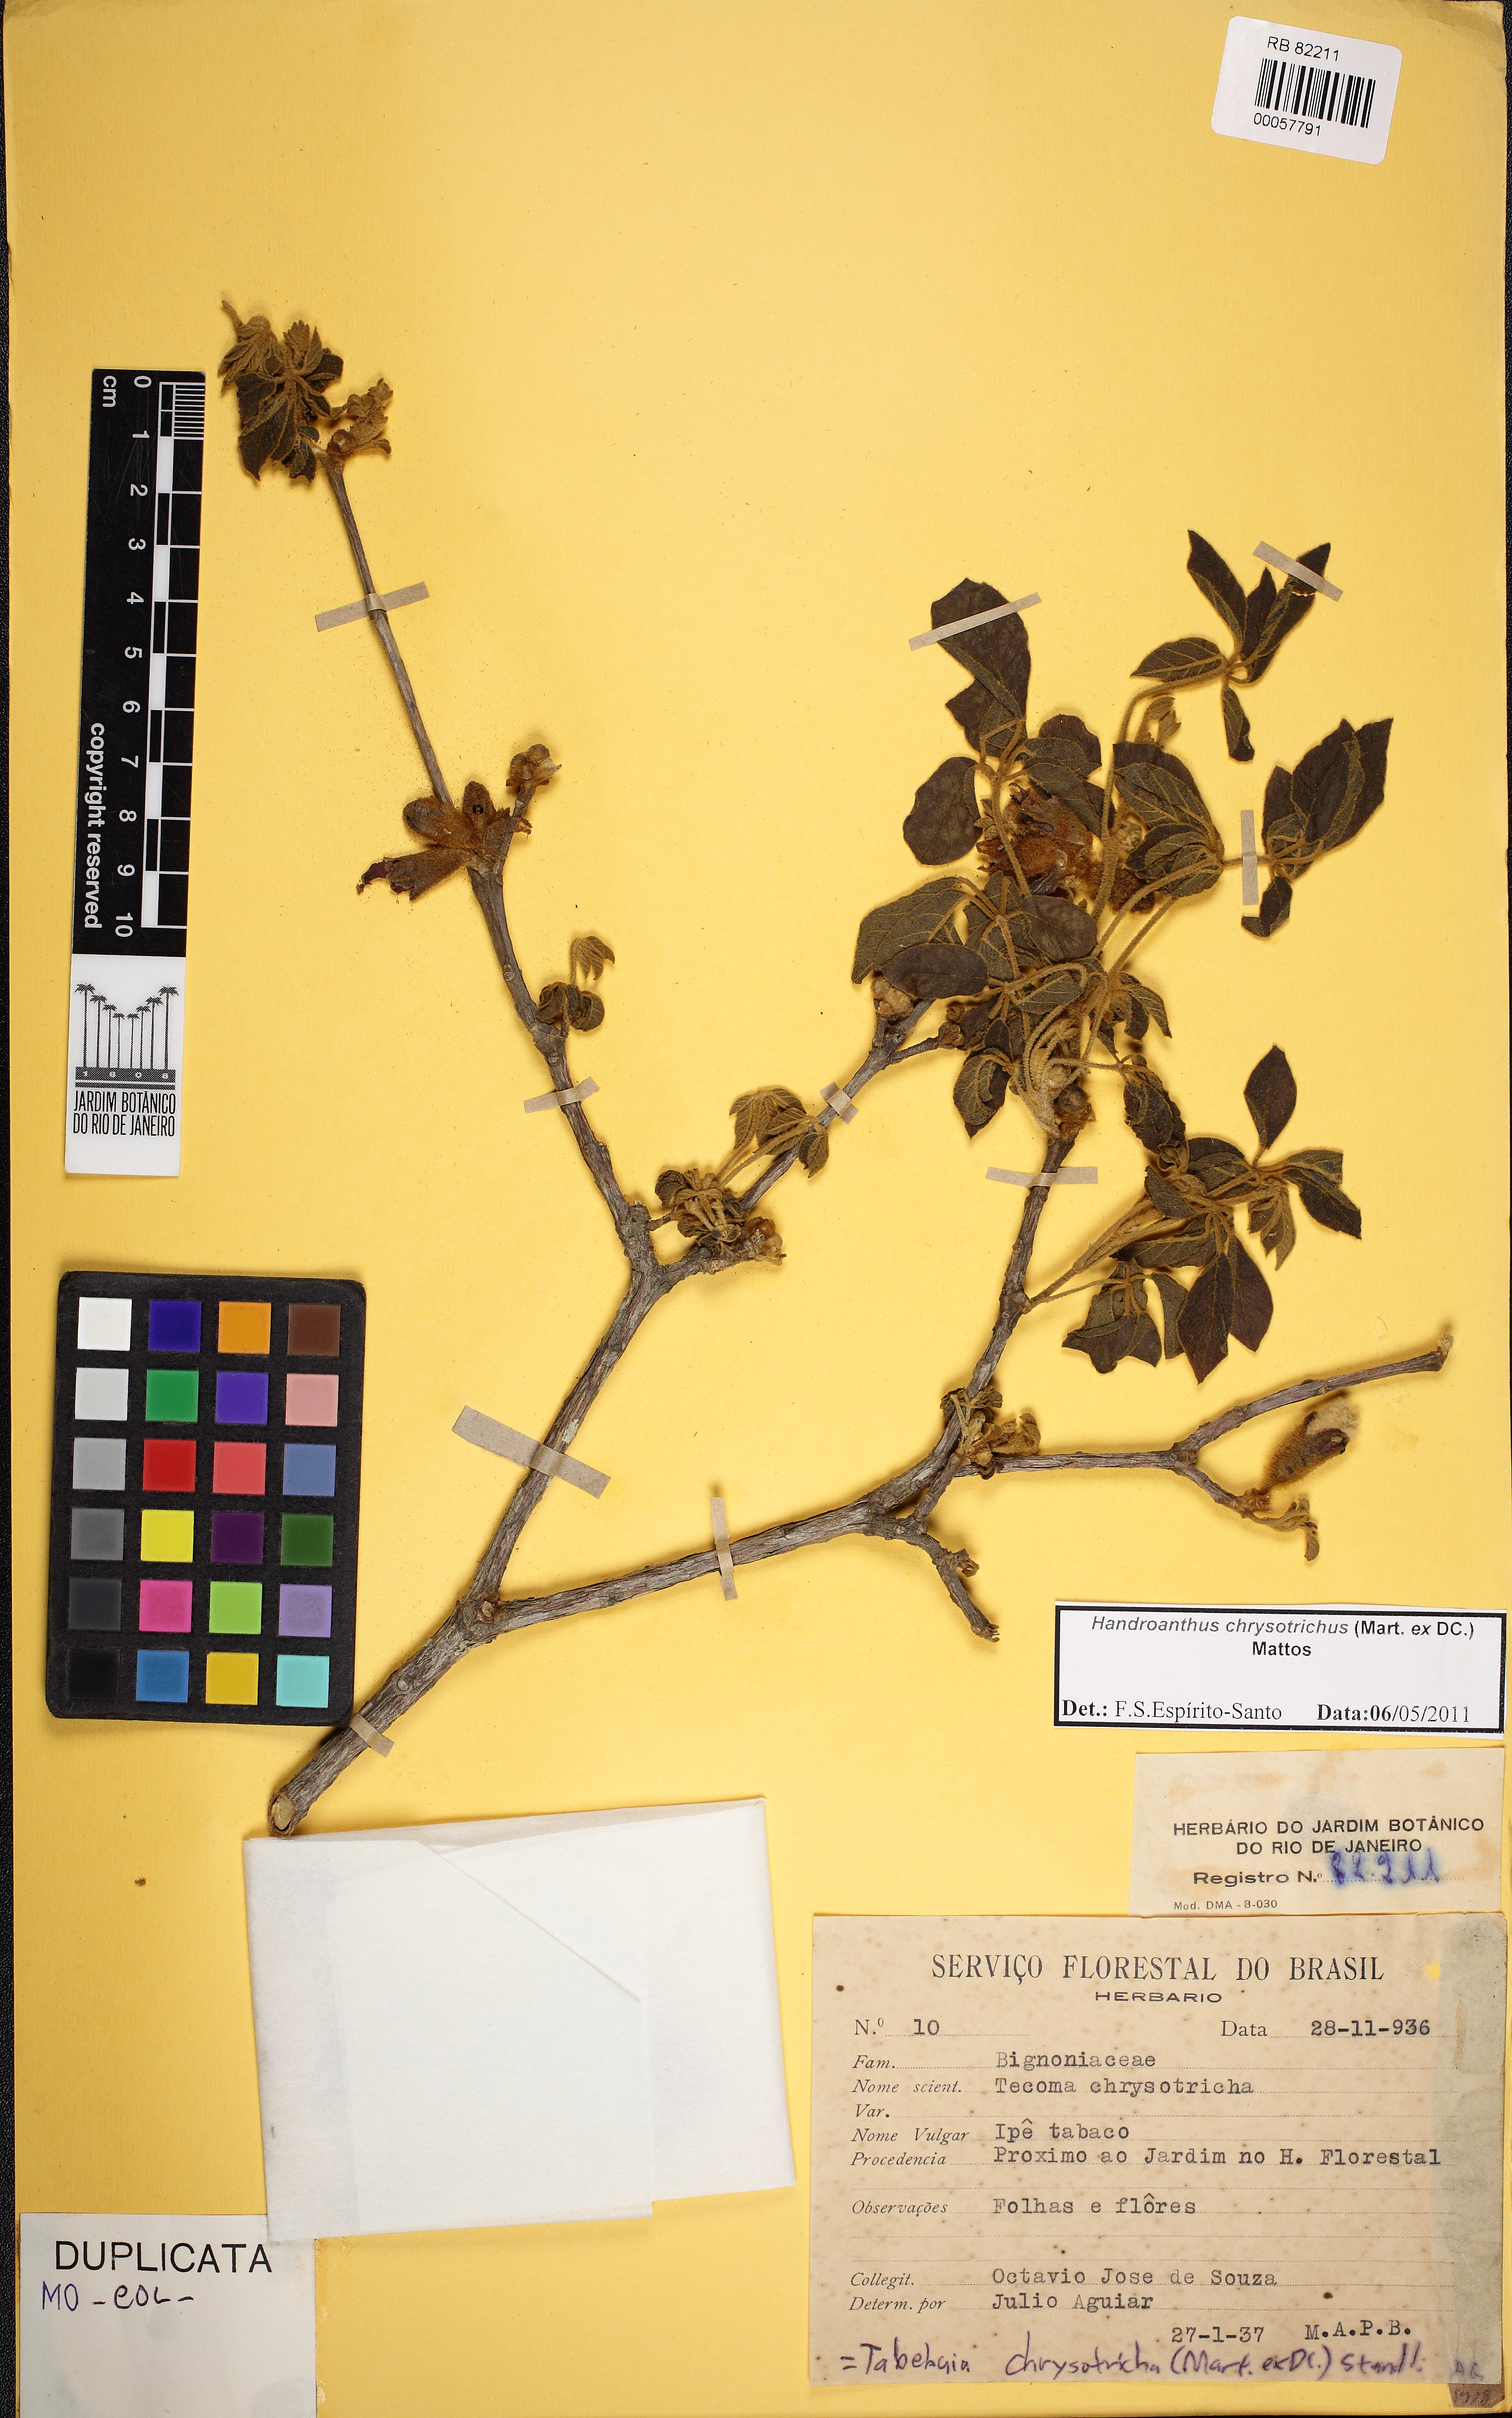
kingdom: Plantae
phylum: Tracheophyta
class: Magnoliopsida
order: Lamiales
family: Bignoniaceae
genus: Handroanthus
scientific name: Handroanthus chrysotrichus
